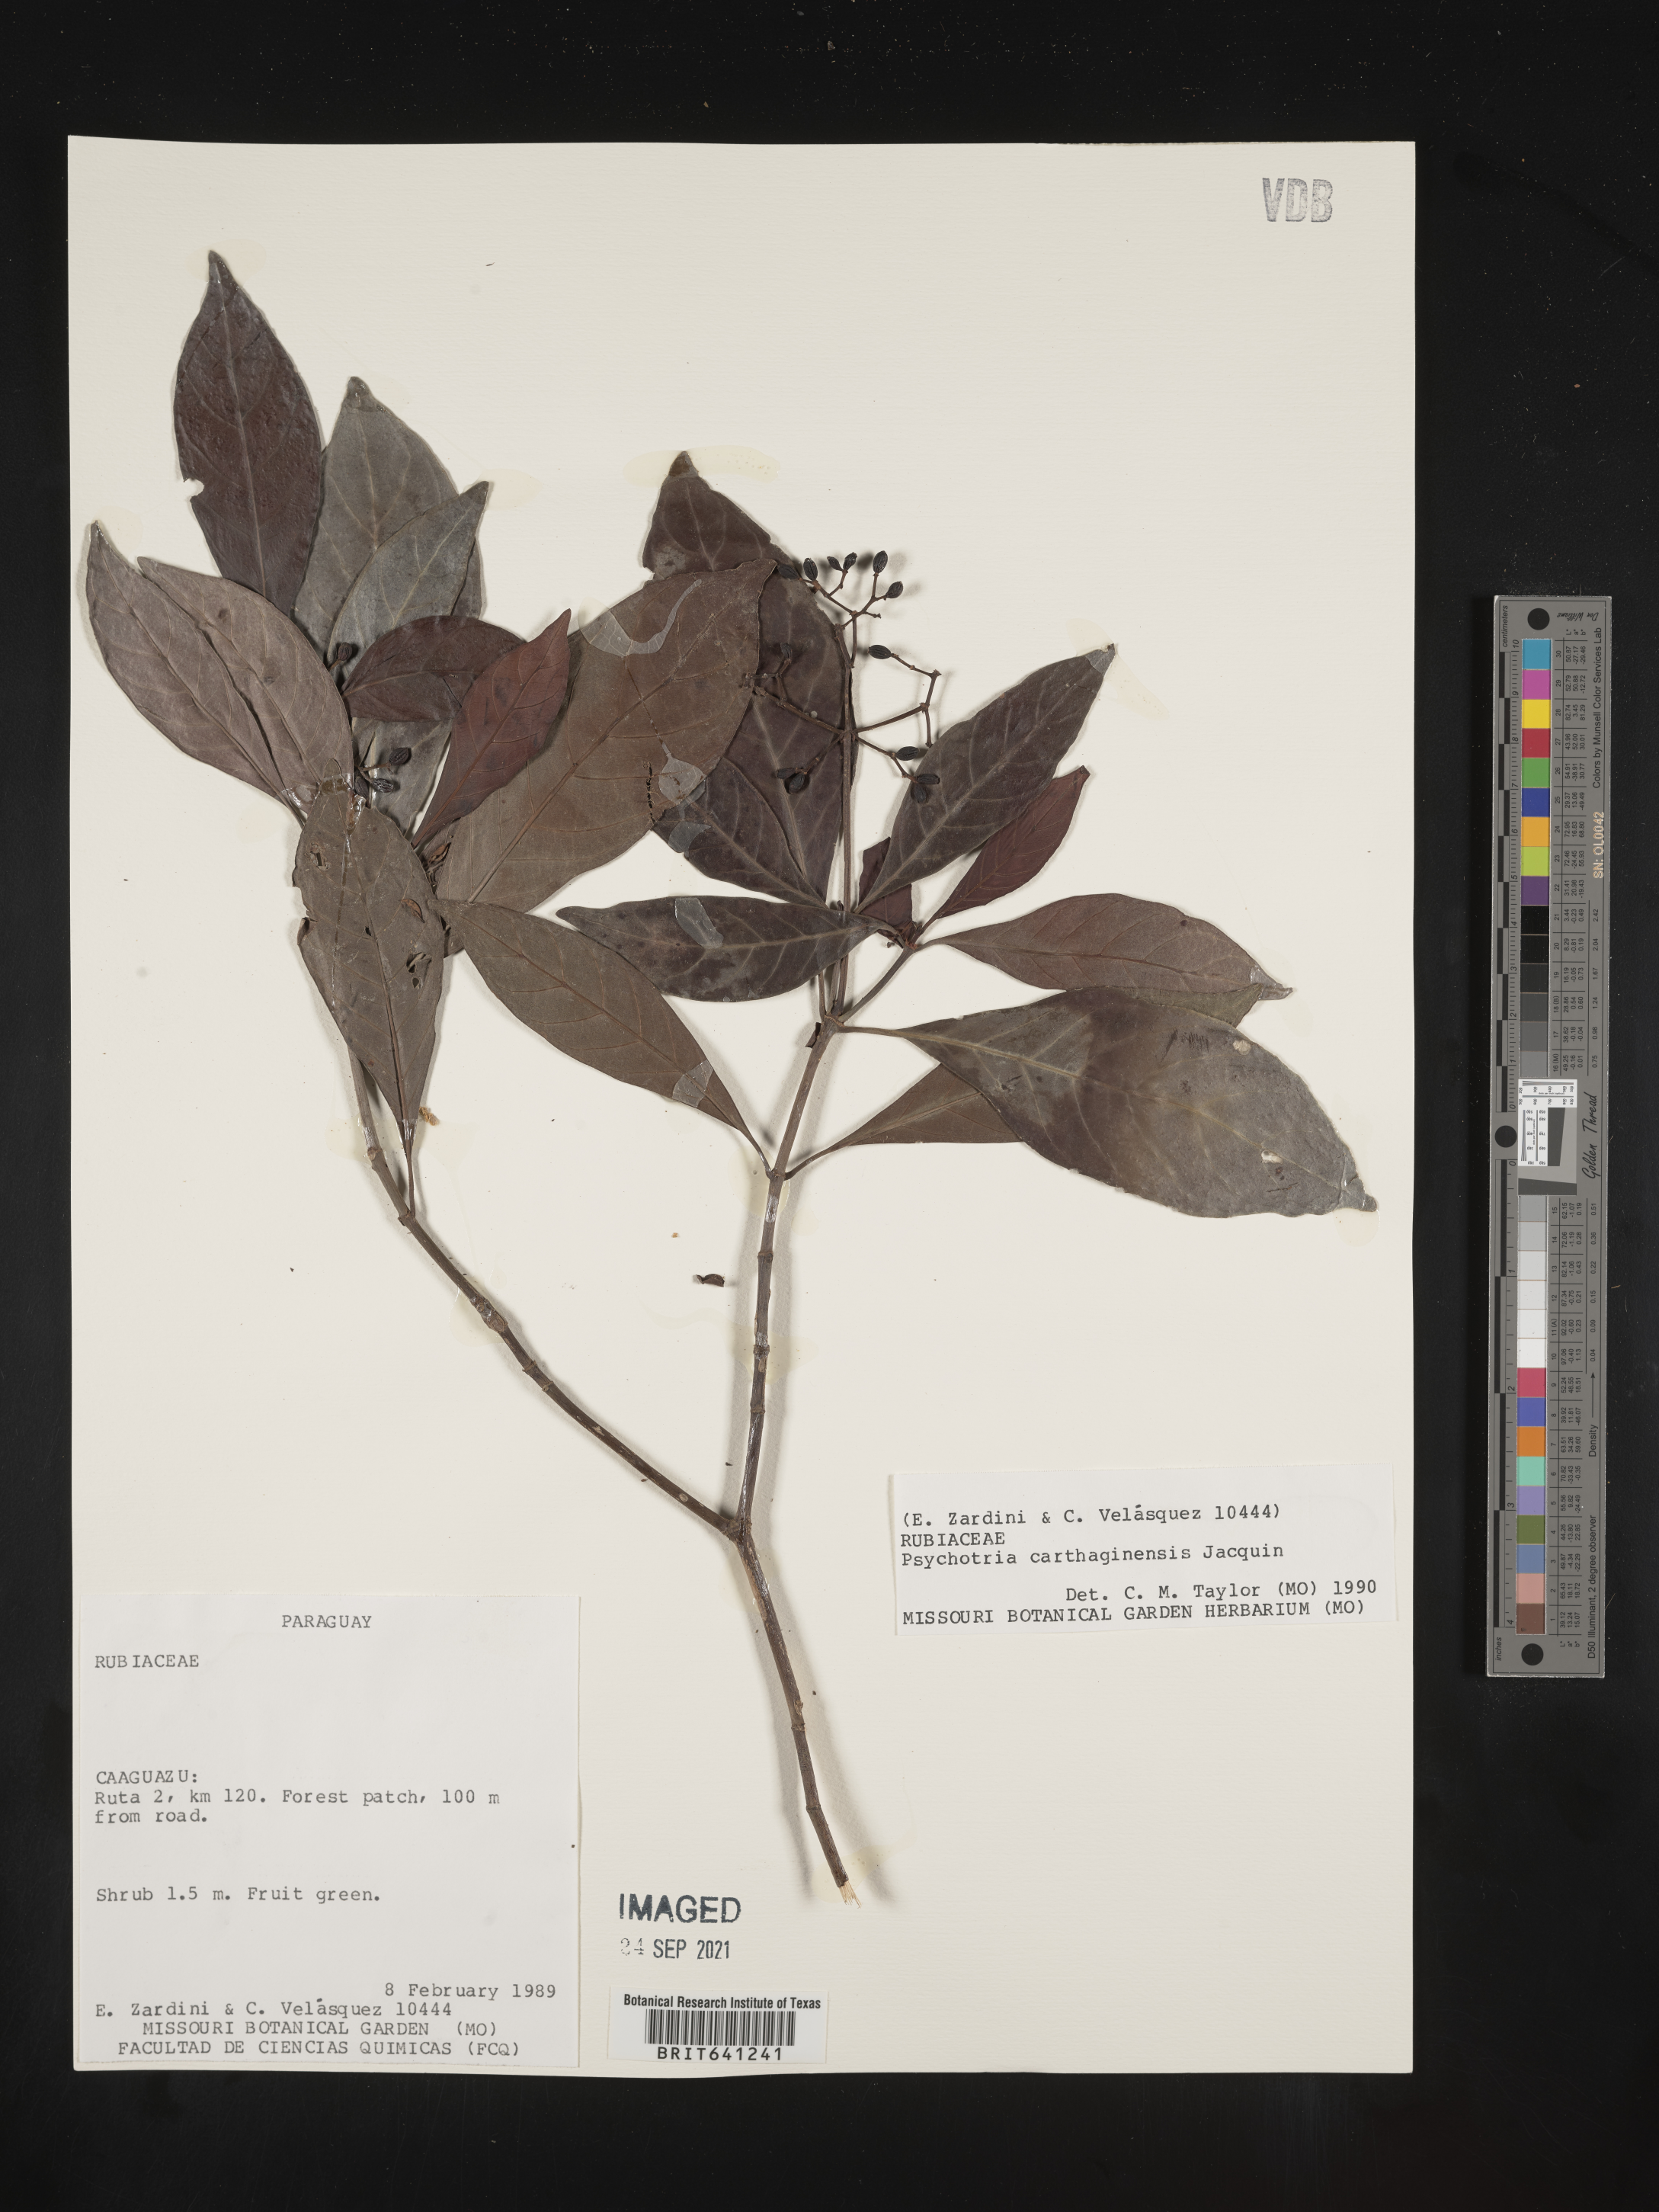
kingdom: Plantae
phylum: Tracheophyta
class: Magnoliopsida
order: Gentianales
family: Rubiaceae
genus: Psychotria
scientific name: Psychotria
